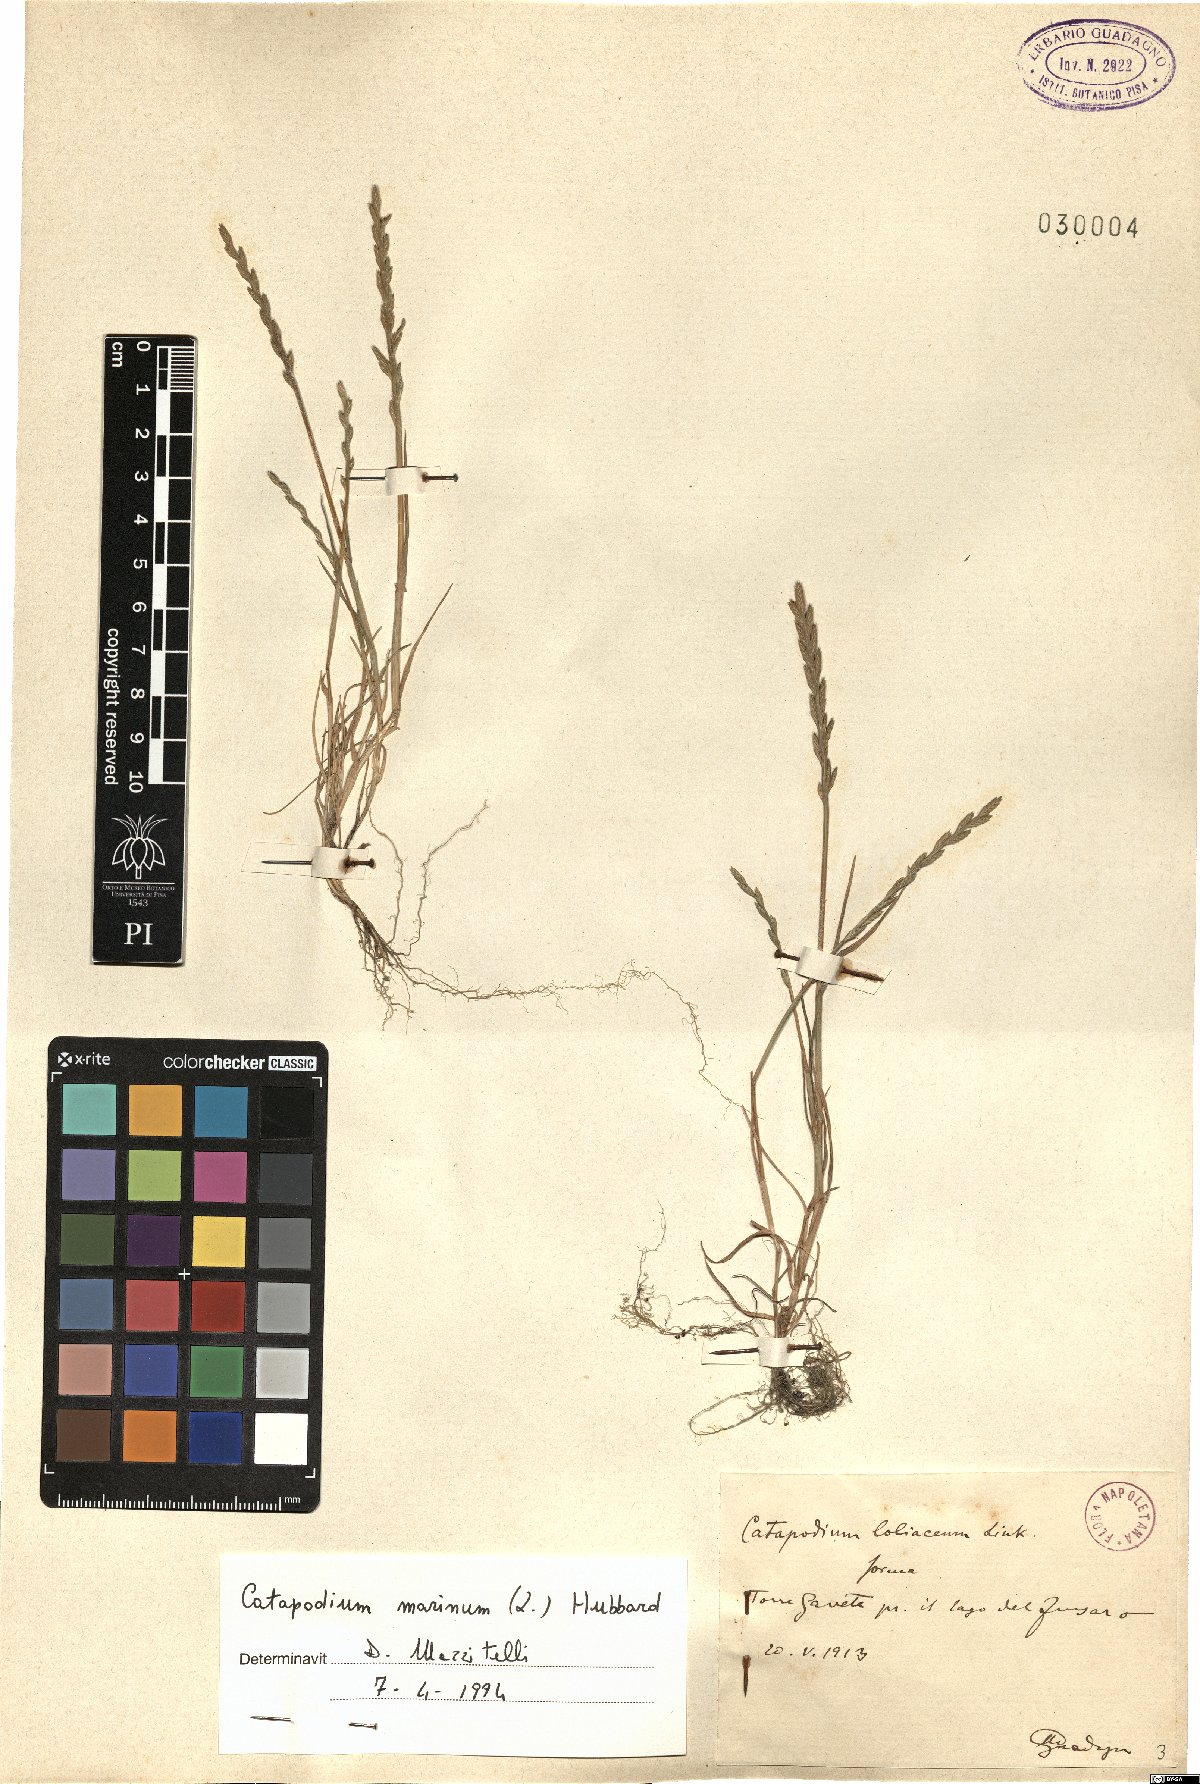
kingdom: Plantae
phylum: Tracheophyta
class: Liliopsida
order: Poales
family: Poaceae
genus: Catapodium
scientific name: Catapodium marinum
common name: Sea fern-grass
